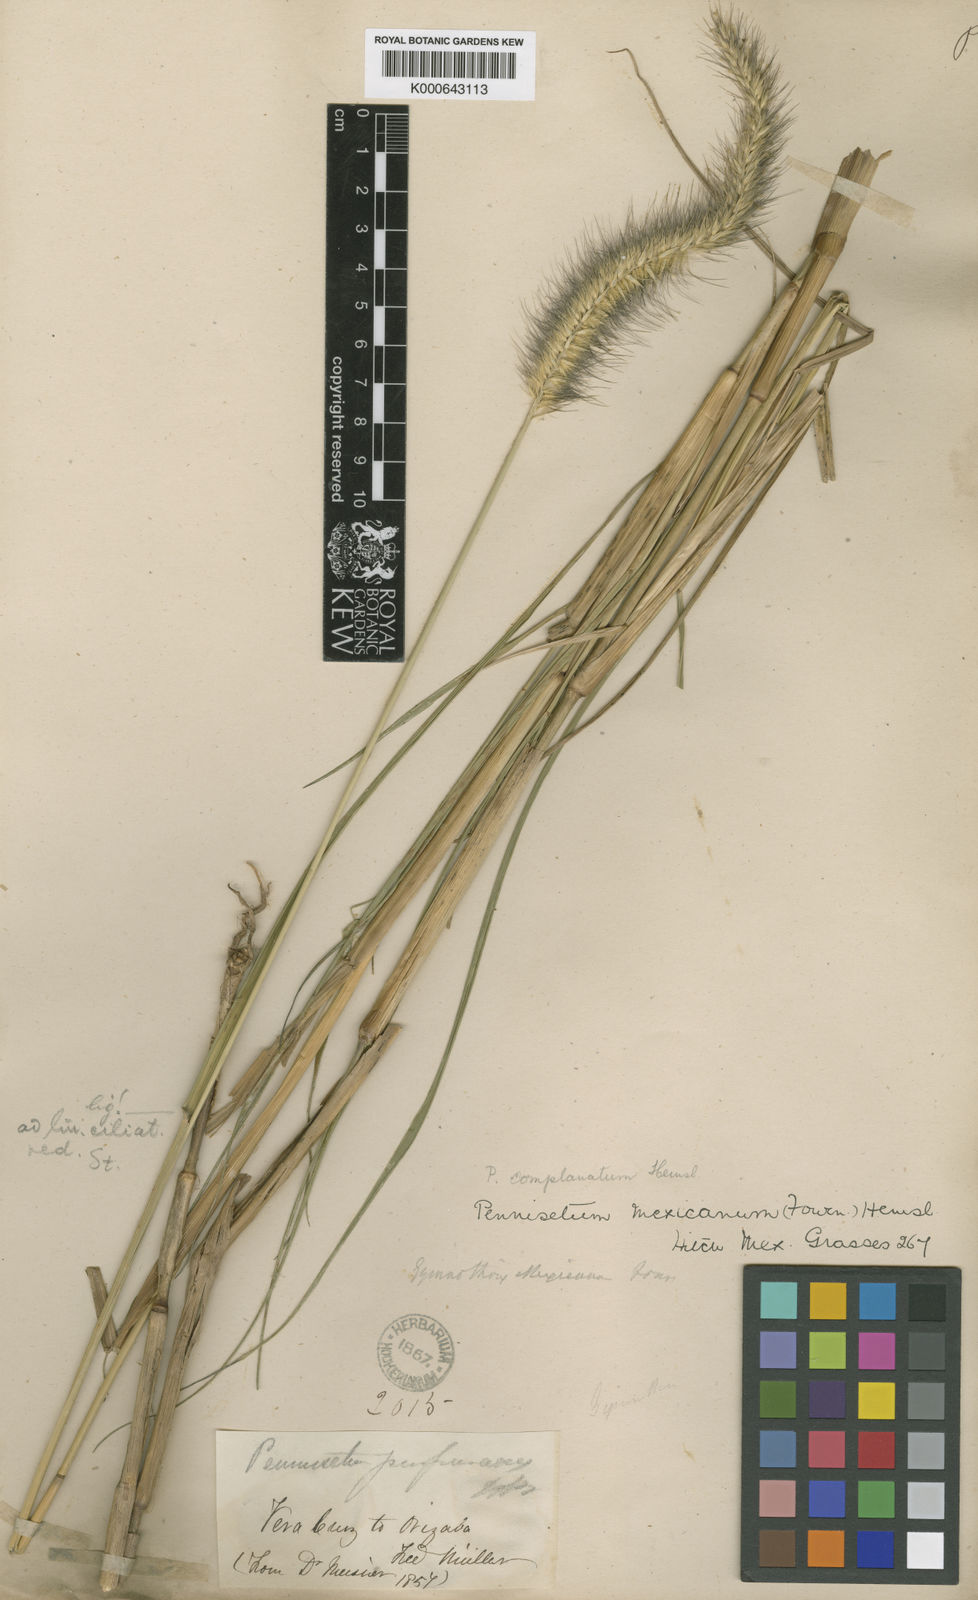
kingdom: Plantae
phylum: Tracheophyta
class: Liliopsida
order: Poales
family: Poaceae
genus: Cenchrus
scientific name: Cenchrus complanatus
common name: Nicaraguan fountaingrass
